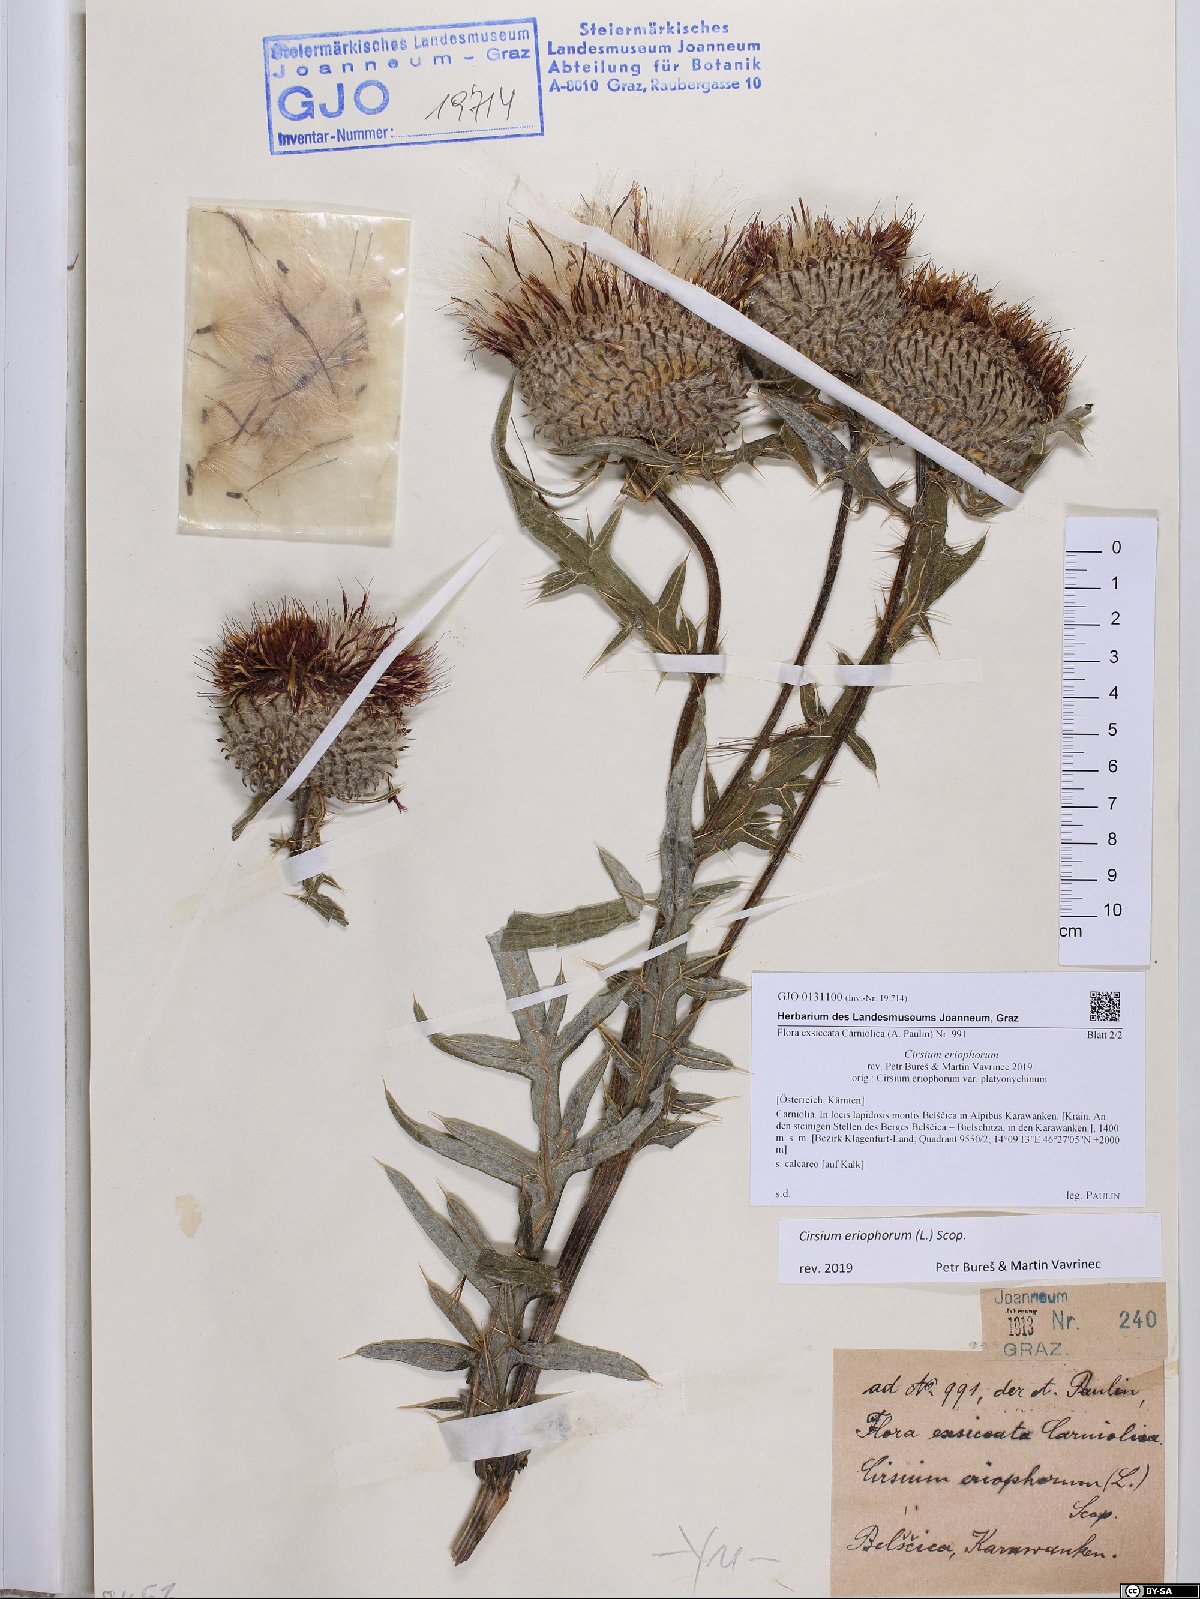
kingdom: Plantae
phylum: Tracheophyta
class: Magnoliopsida
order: Asterales
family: Asteraceae
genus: Lophiolepis
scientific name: Lophiolepis eriophora
